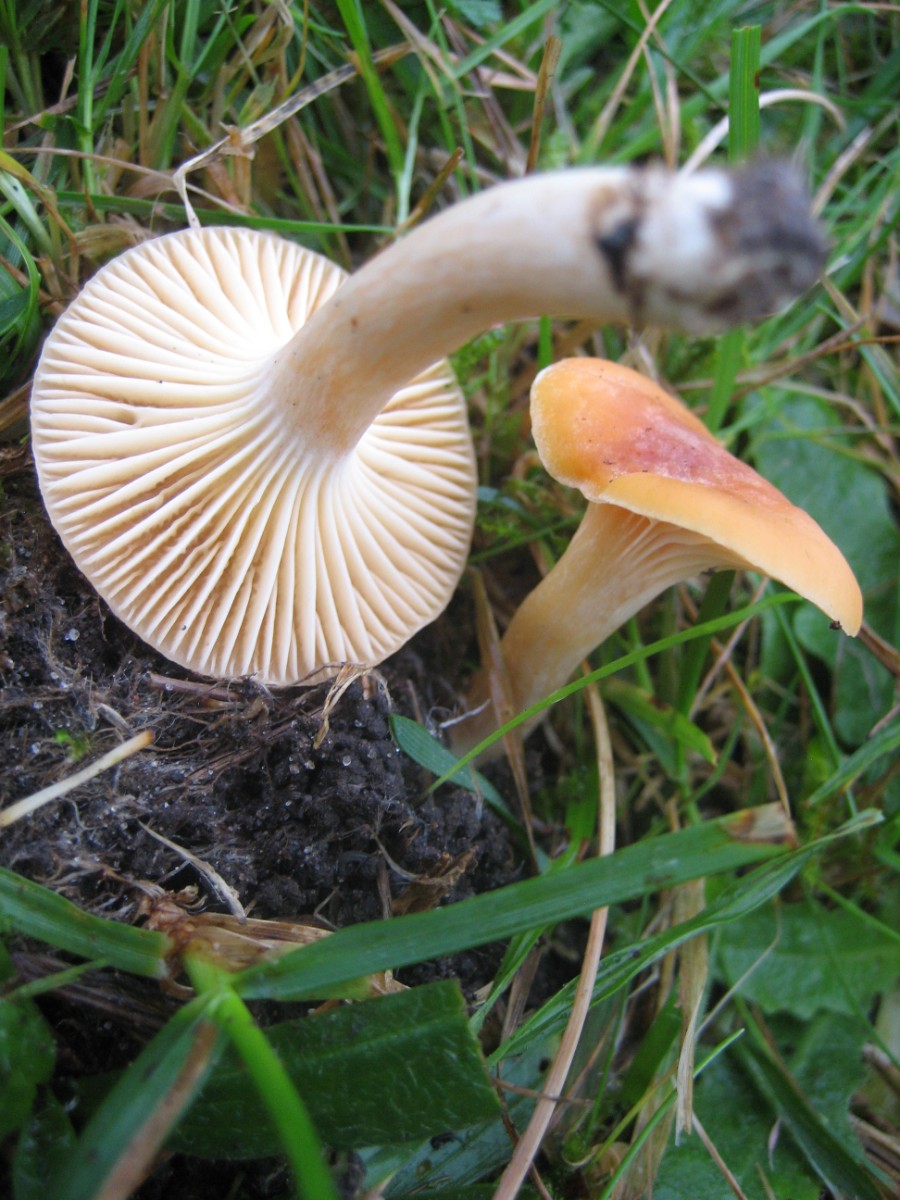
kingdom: Fungi
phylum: Basidiomycota
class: Agaricomycetes
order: Agaricales
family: Hygrophoraceae
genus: Cuphophyllus
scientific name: Cuphophyllus pratensis
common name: eng-vokshat
